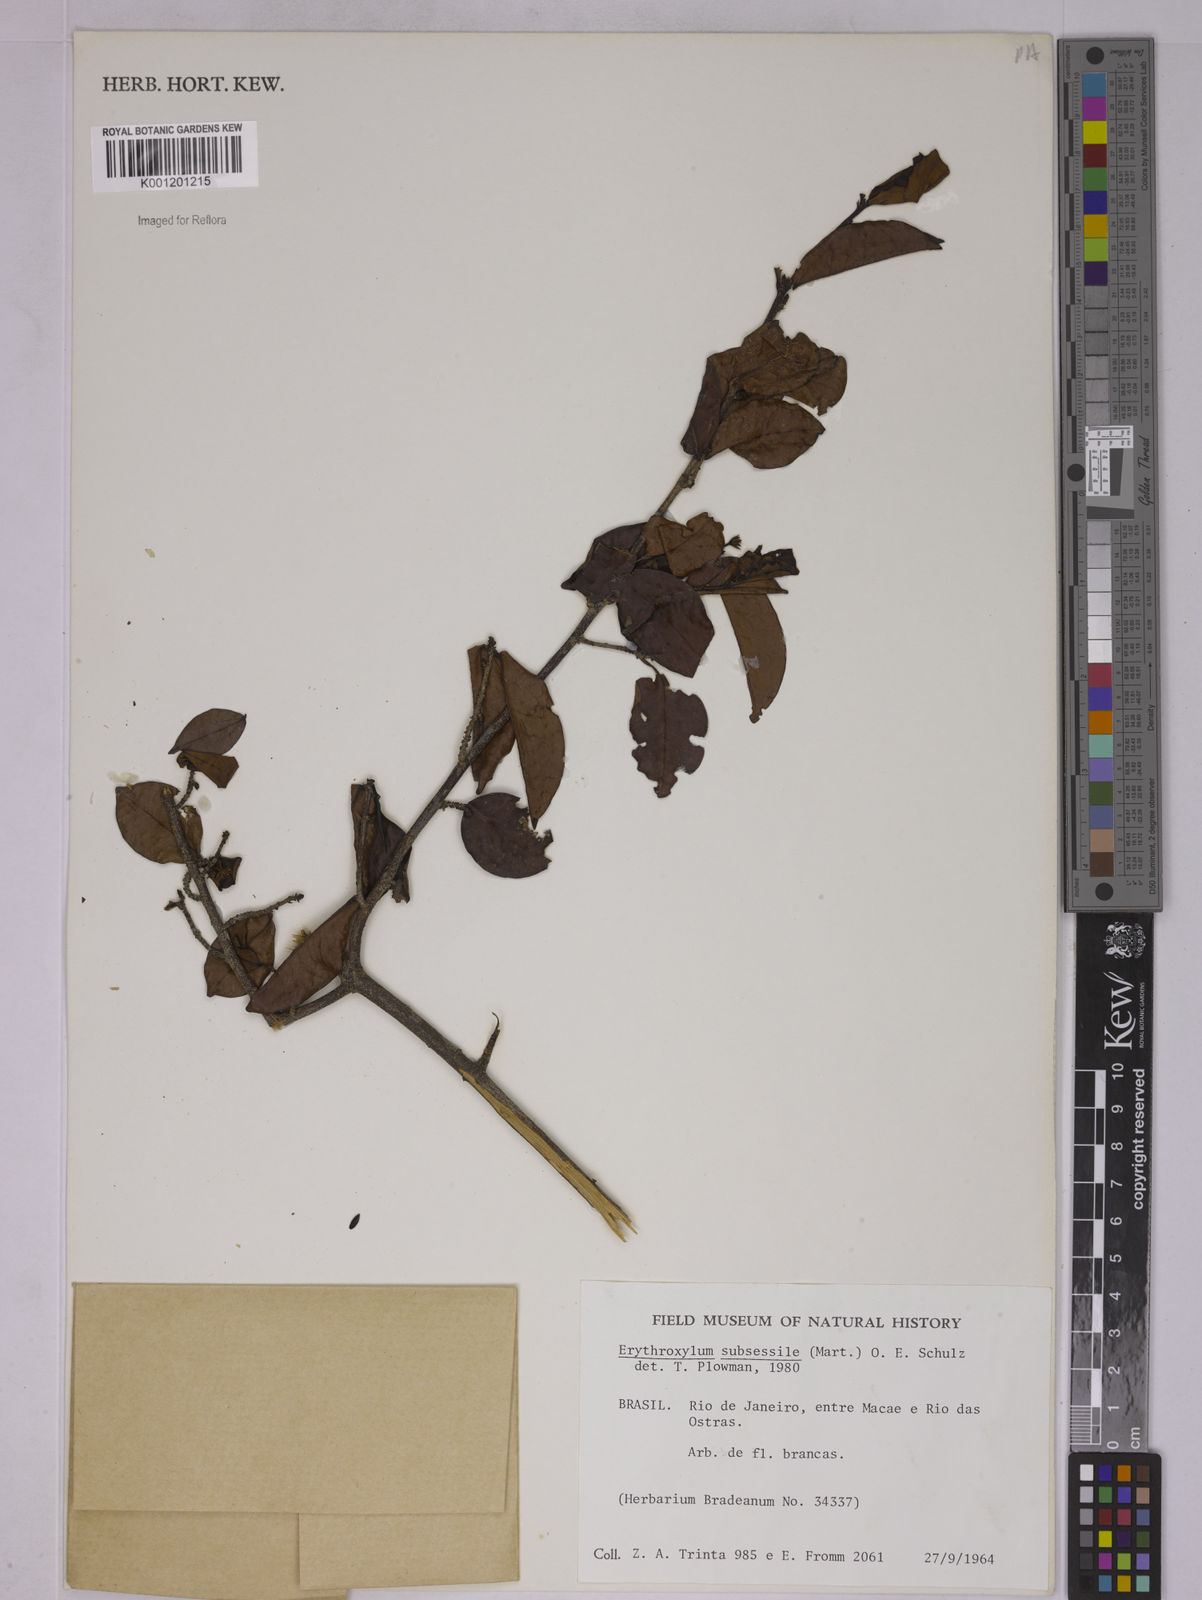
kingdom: Plantae
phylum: Tracheophyta
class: Magnoliopsida
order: Malpighiales
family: Erythroxylaceae
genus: Erythroxylum
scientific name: Erythroxylum macrocalyx
